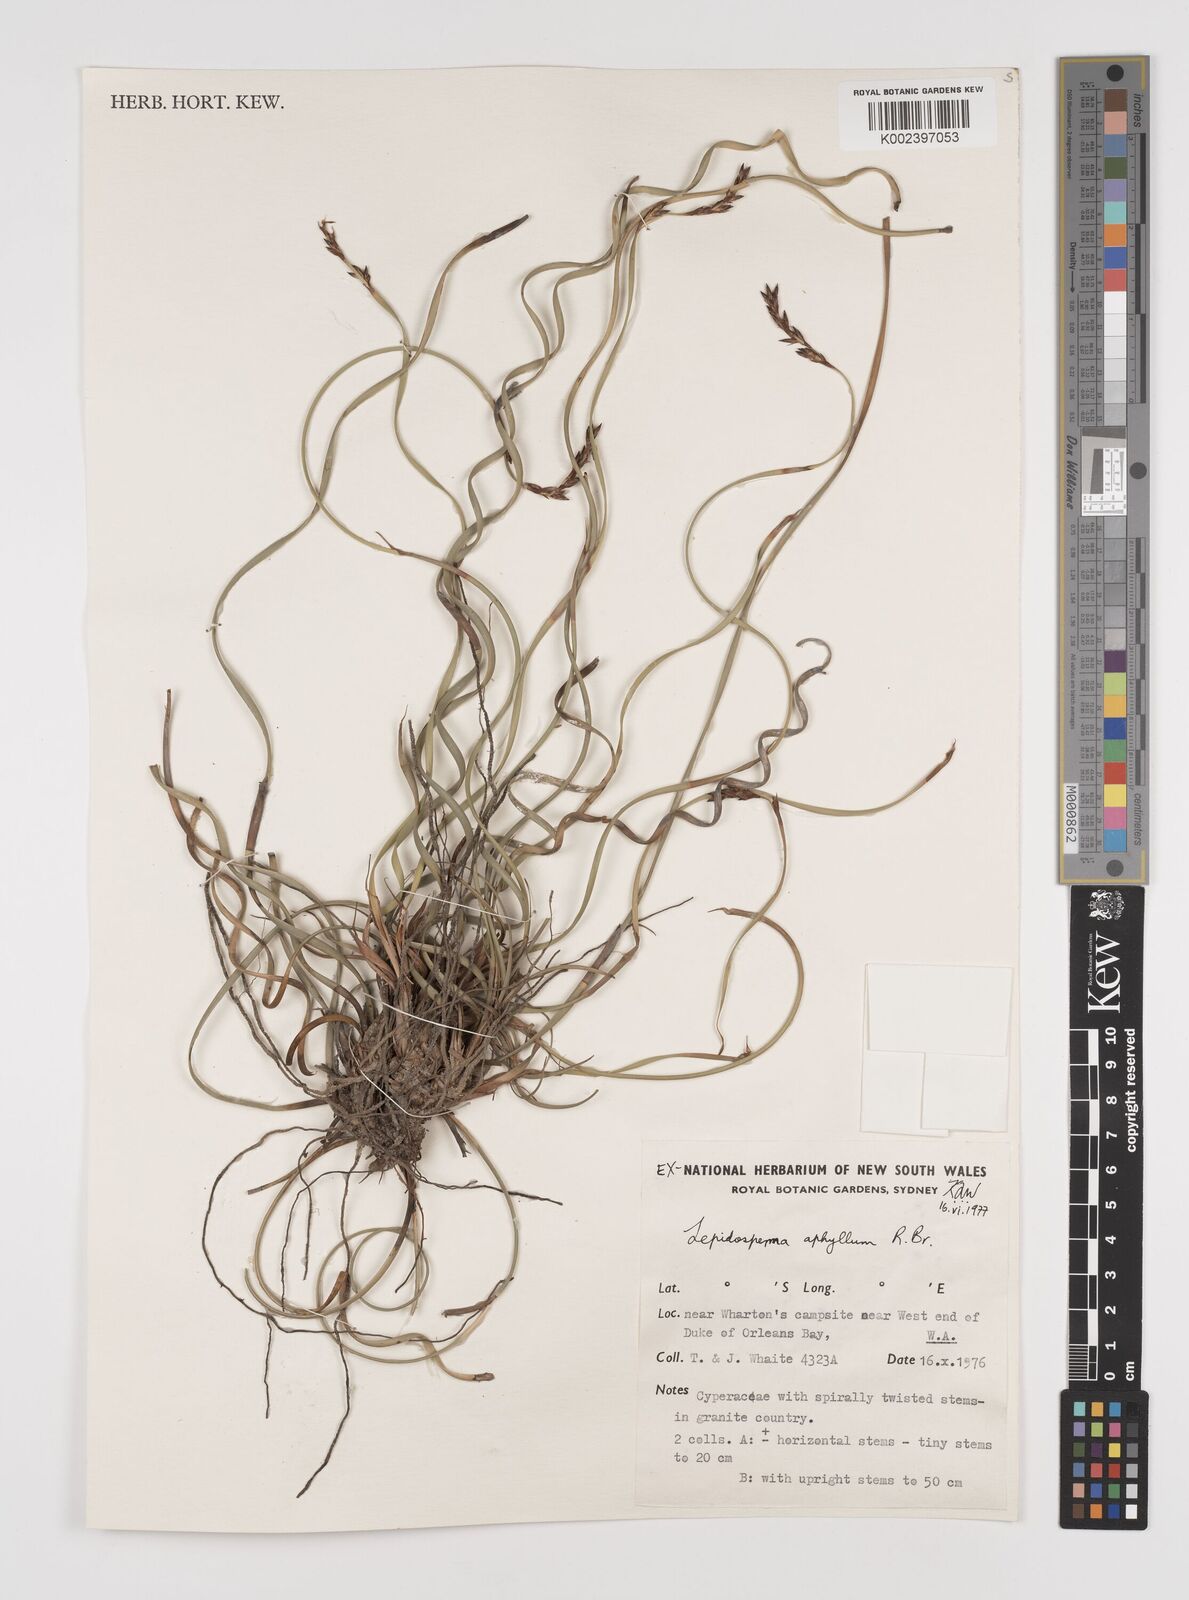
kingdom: Plantae
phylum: Tracheophyta
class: Liliopsida
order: Poales
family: Cyperaceae
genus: Lepidosperma
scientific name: Lepidosperma aphyllum
